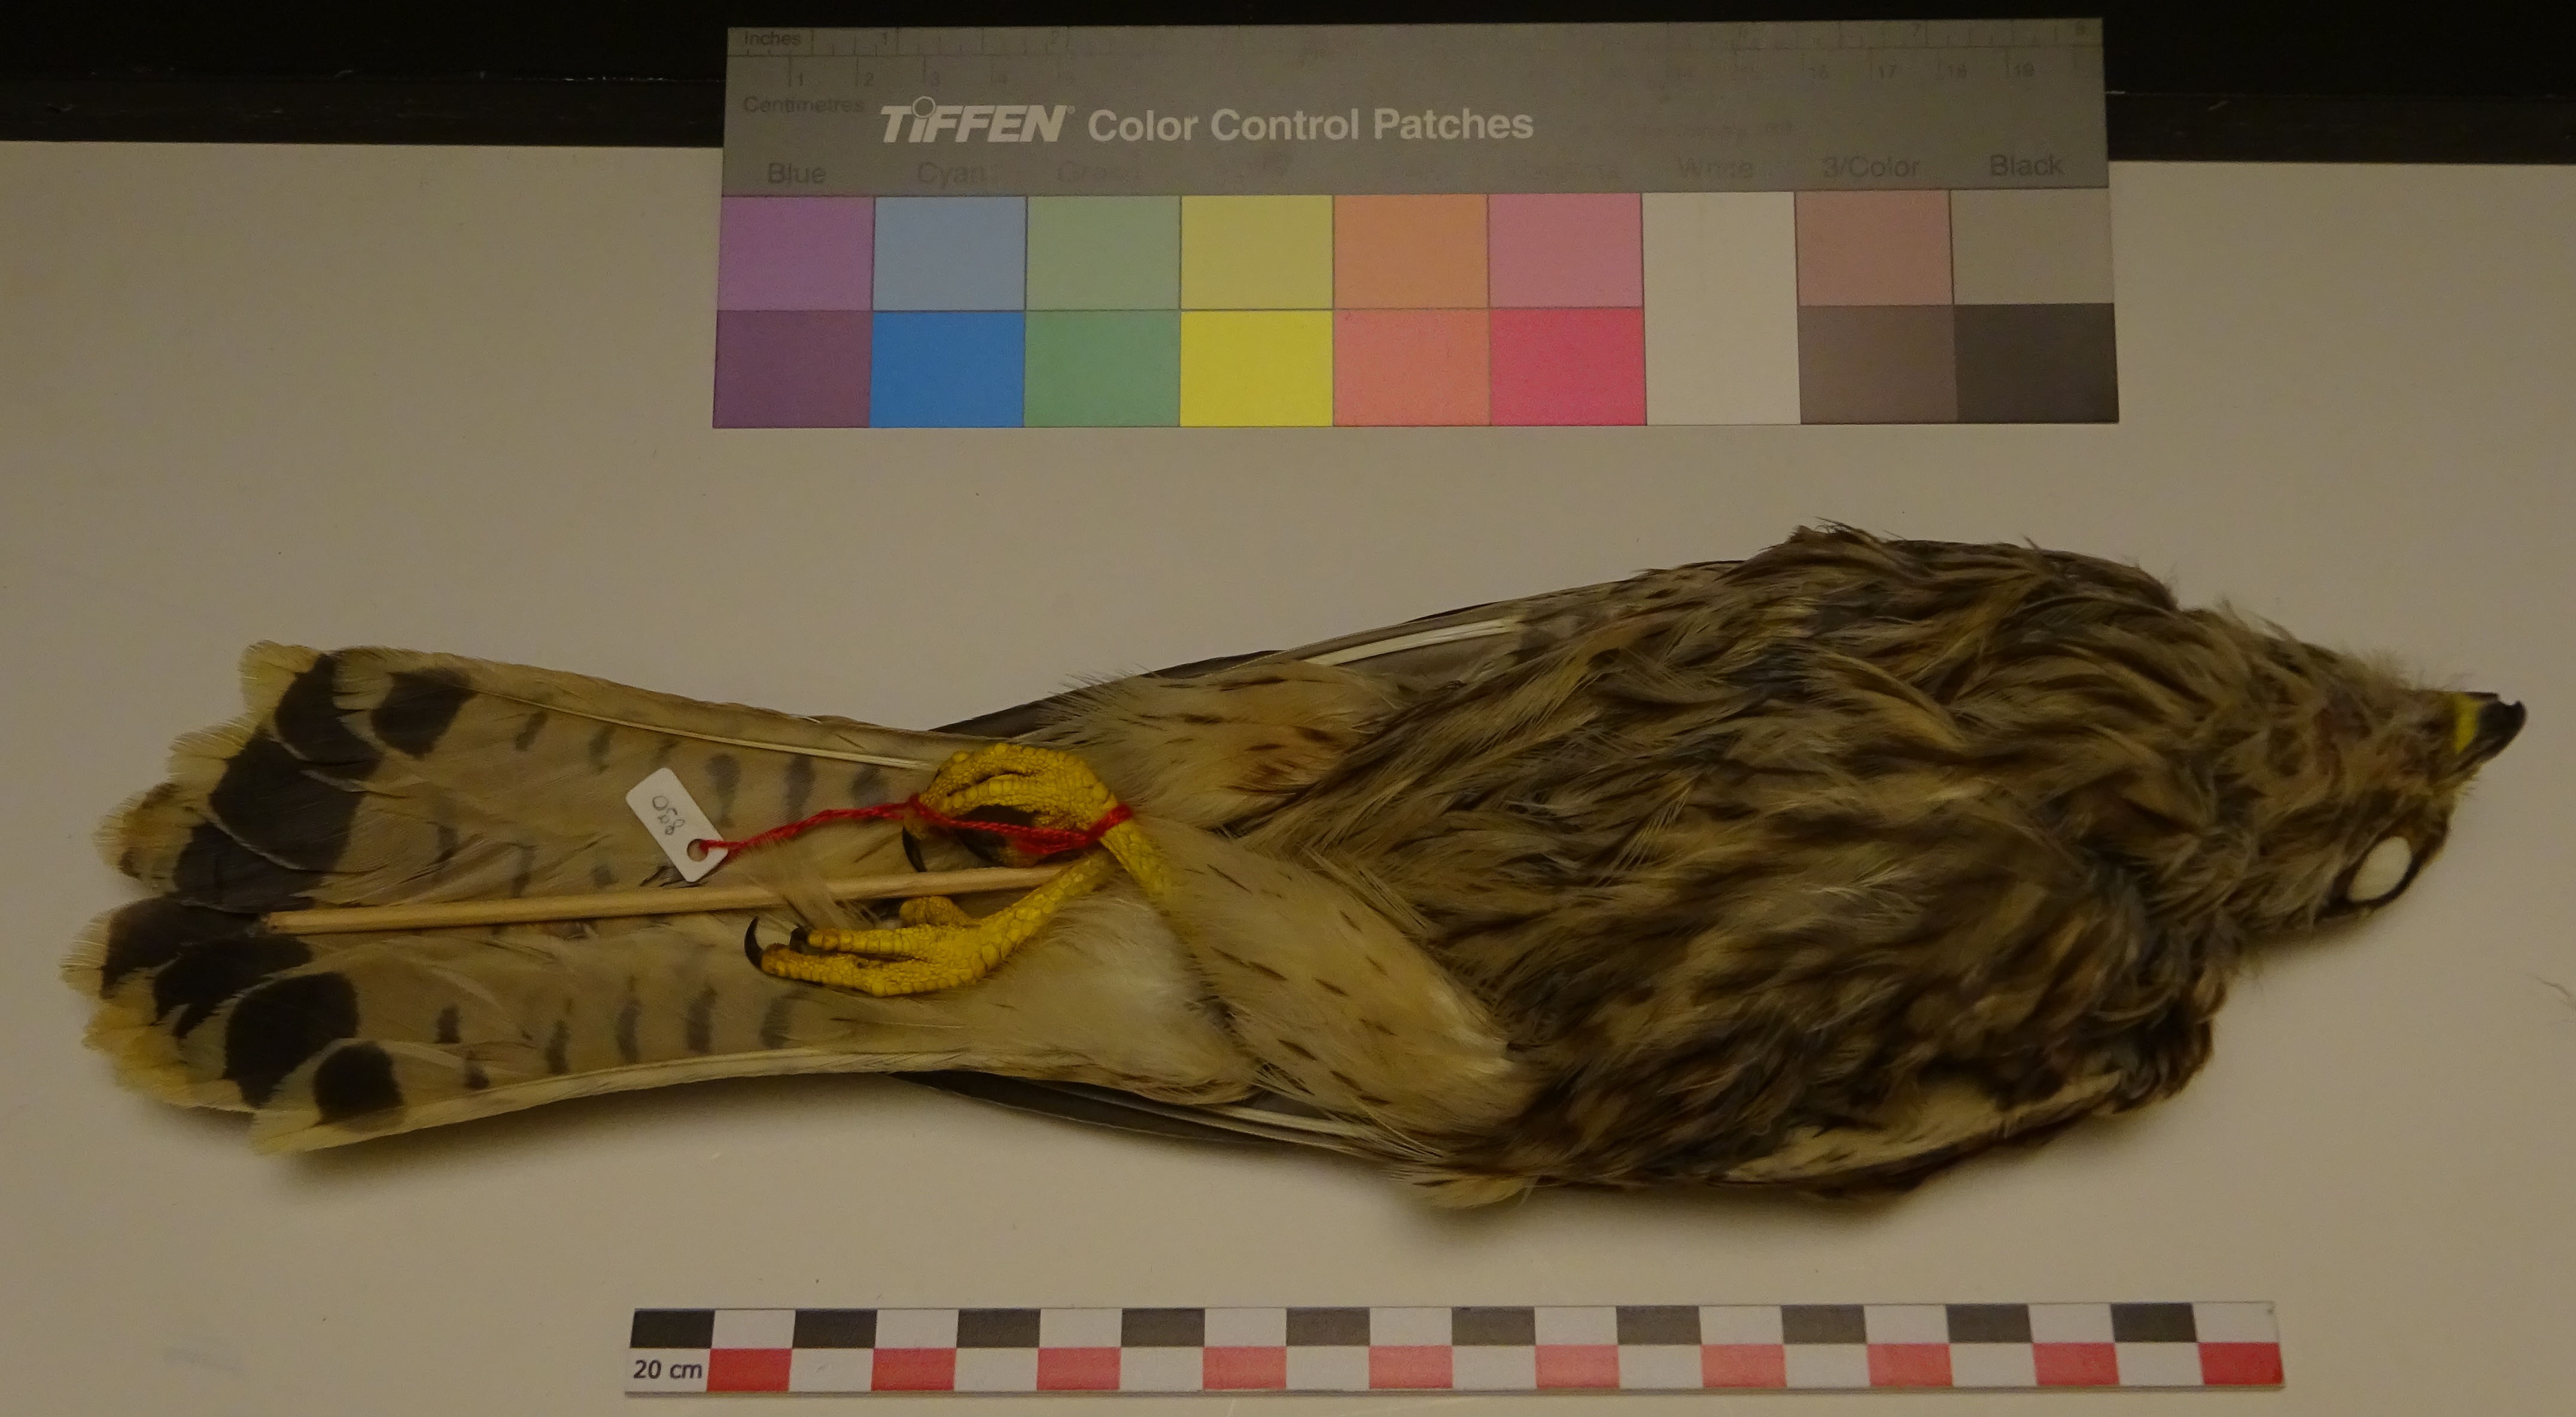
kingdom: Animalia
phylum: Chordata
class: Aves
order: Falconiformes
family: Falconidae
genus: Falco
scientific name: Falco tinnunculus
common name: Common kestrel
